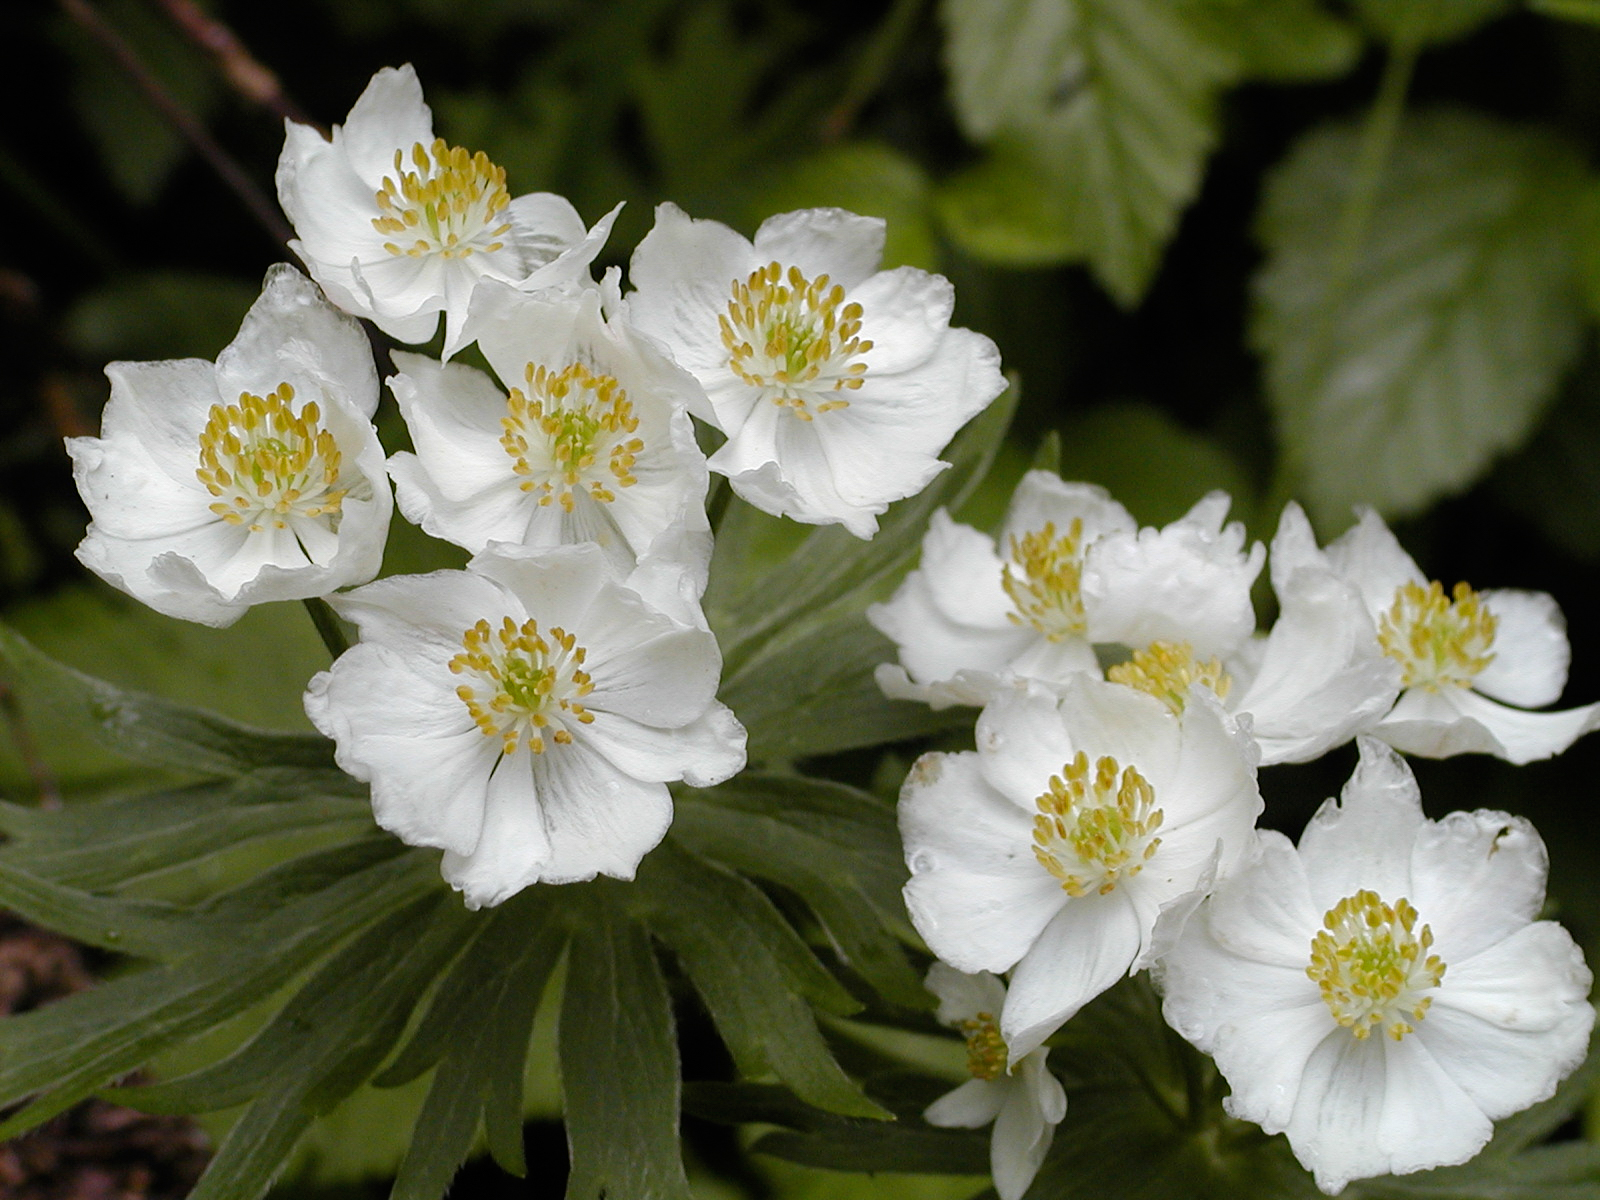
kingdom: Plantae
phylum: Tracheophyta
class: Magnoliopsida
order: Ranunculales
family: Ranunculaceae
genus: Anemonastrum
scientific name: Anemonastrum narcissiflorum
